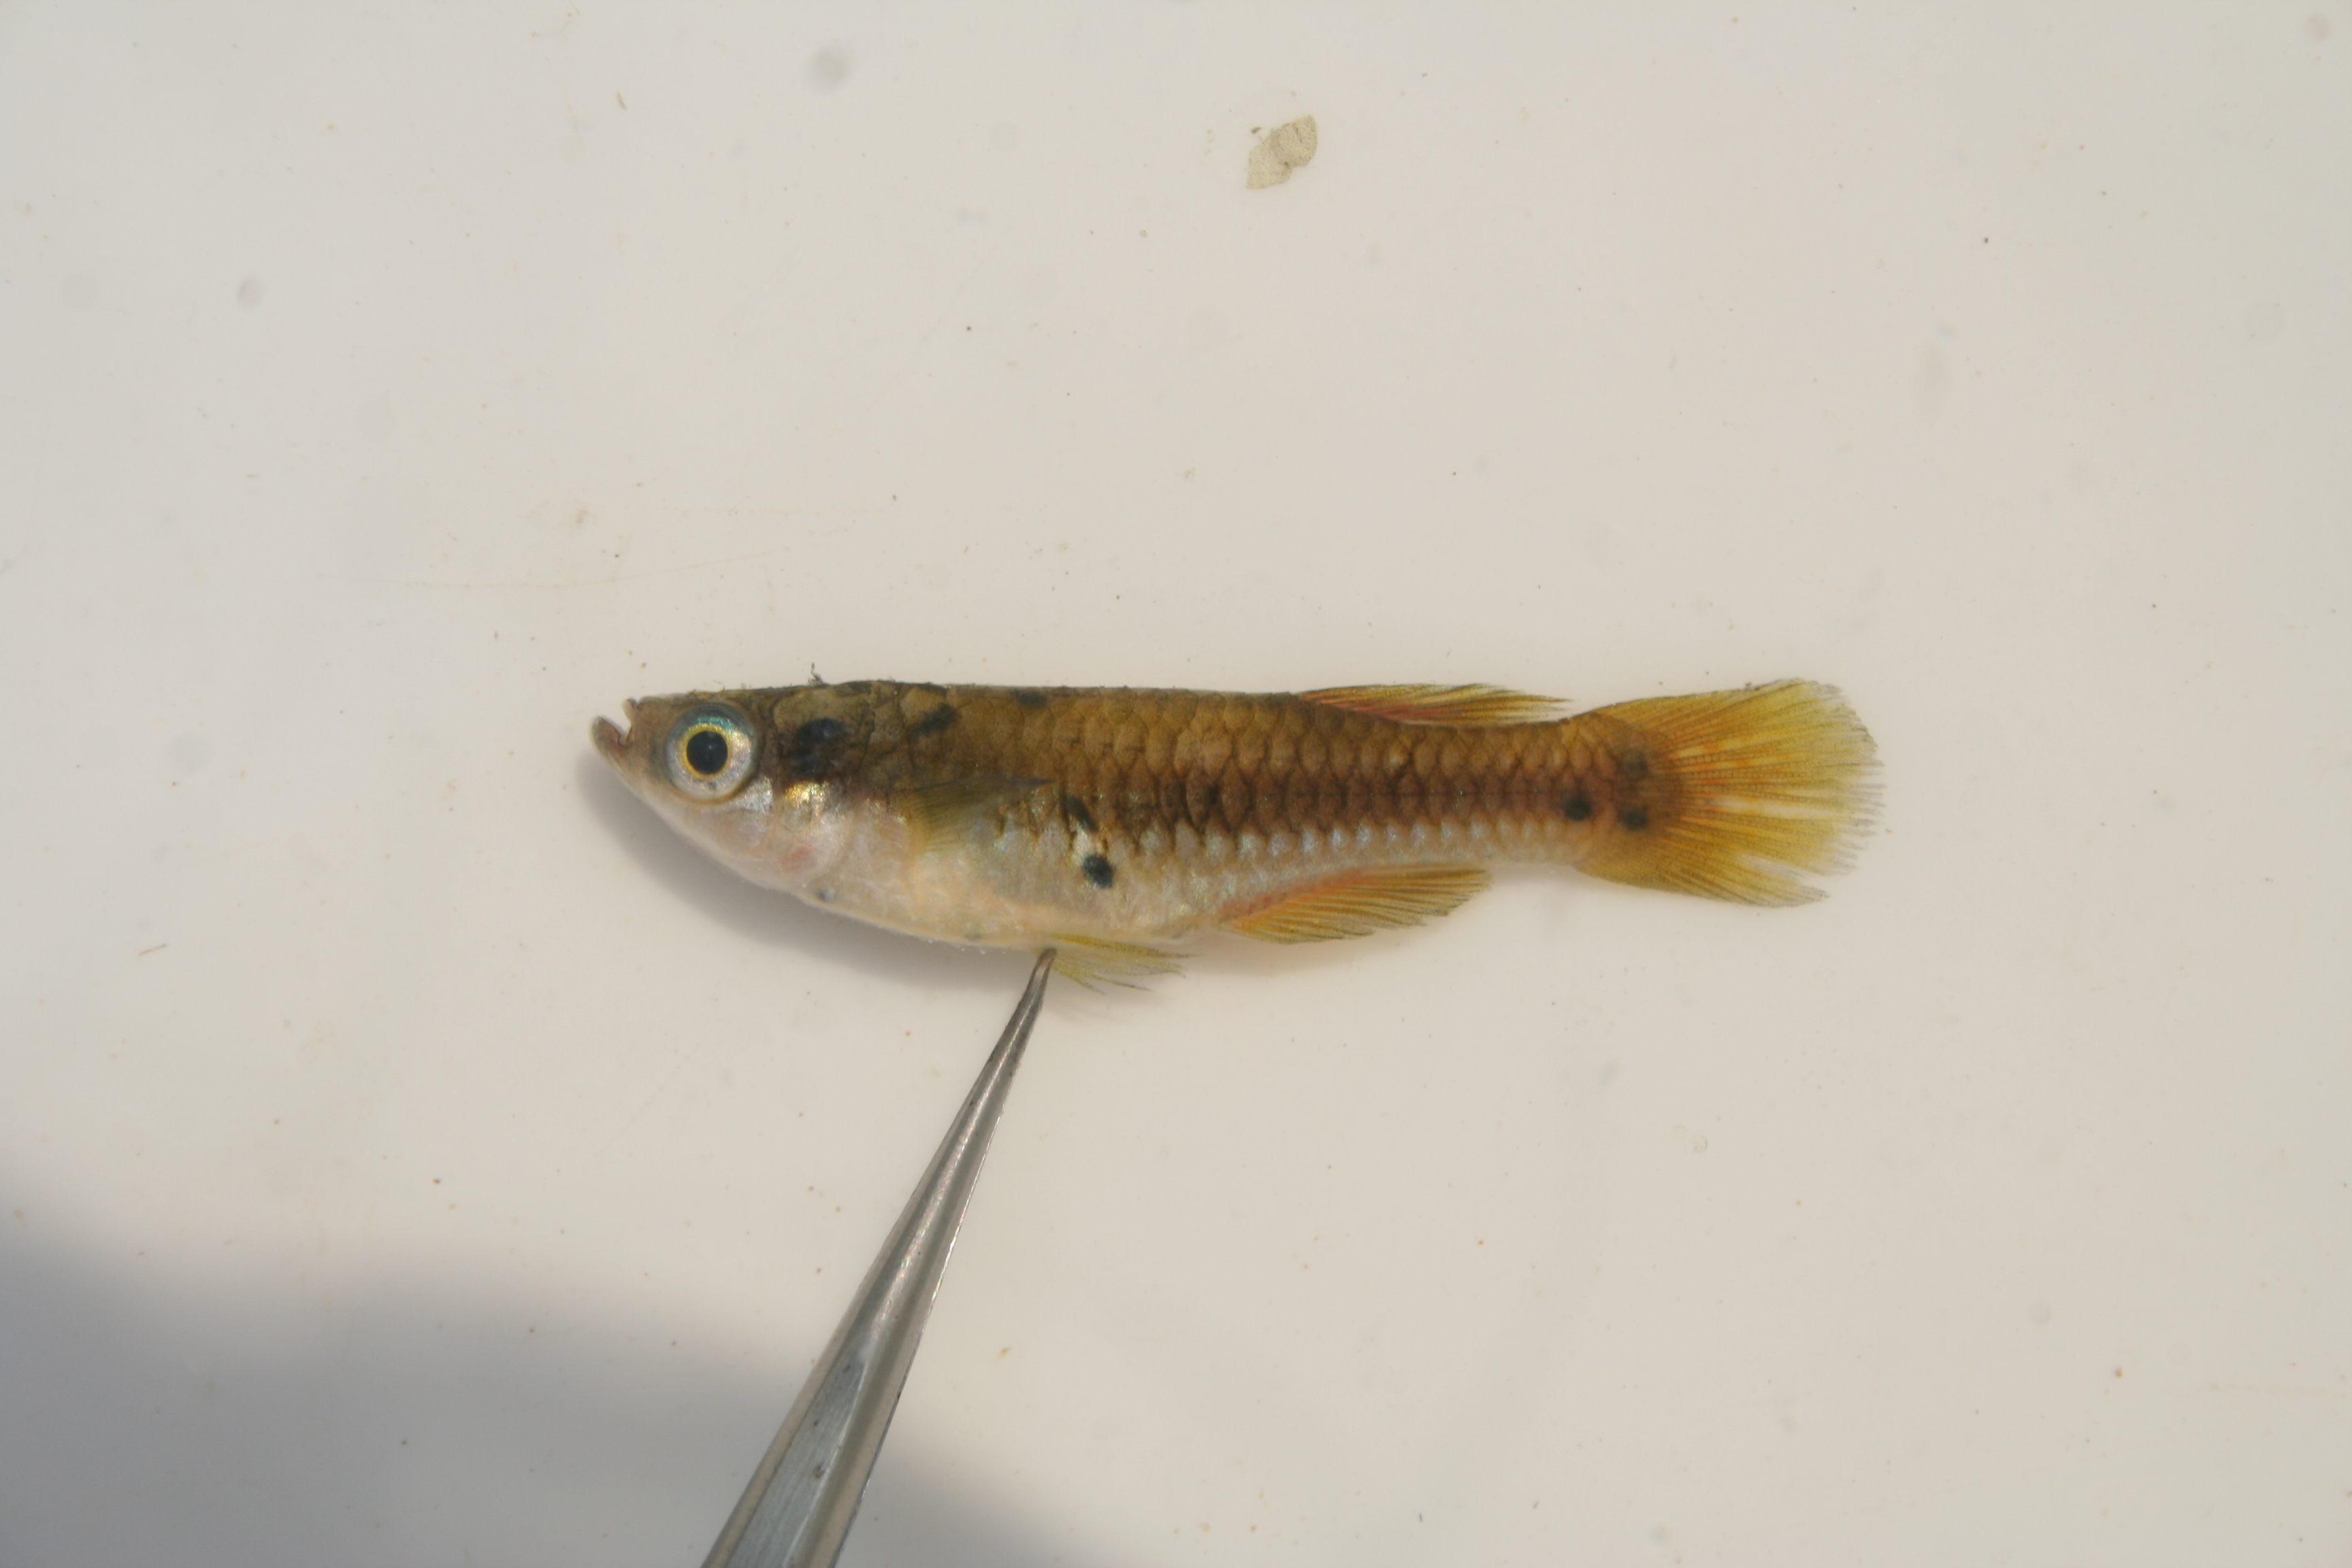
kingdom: Animalia
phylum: Chordata
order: Cyprinodontiformes
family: Poeciliidae
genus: Lacustricola
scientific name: Lacustricola
